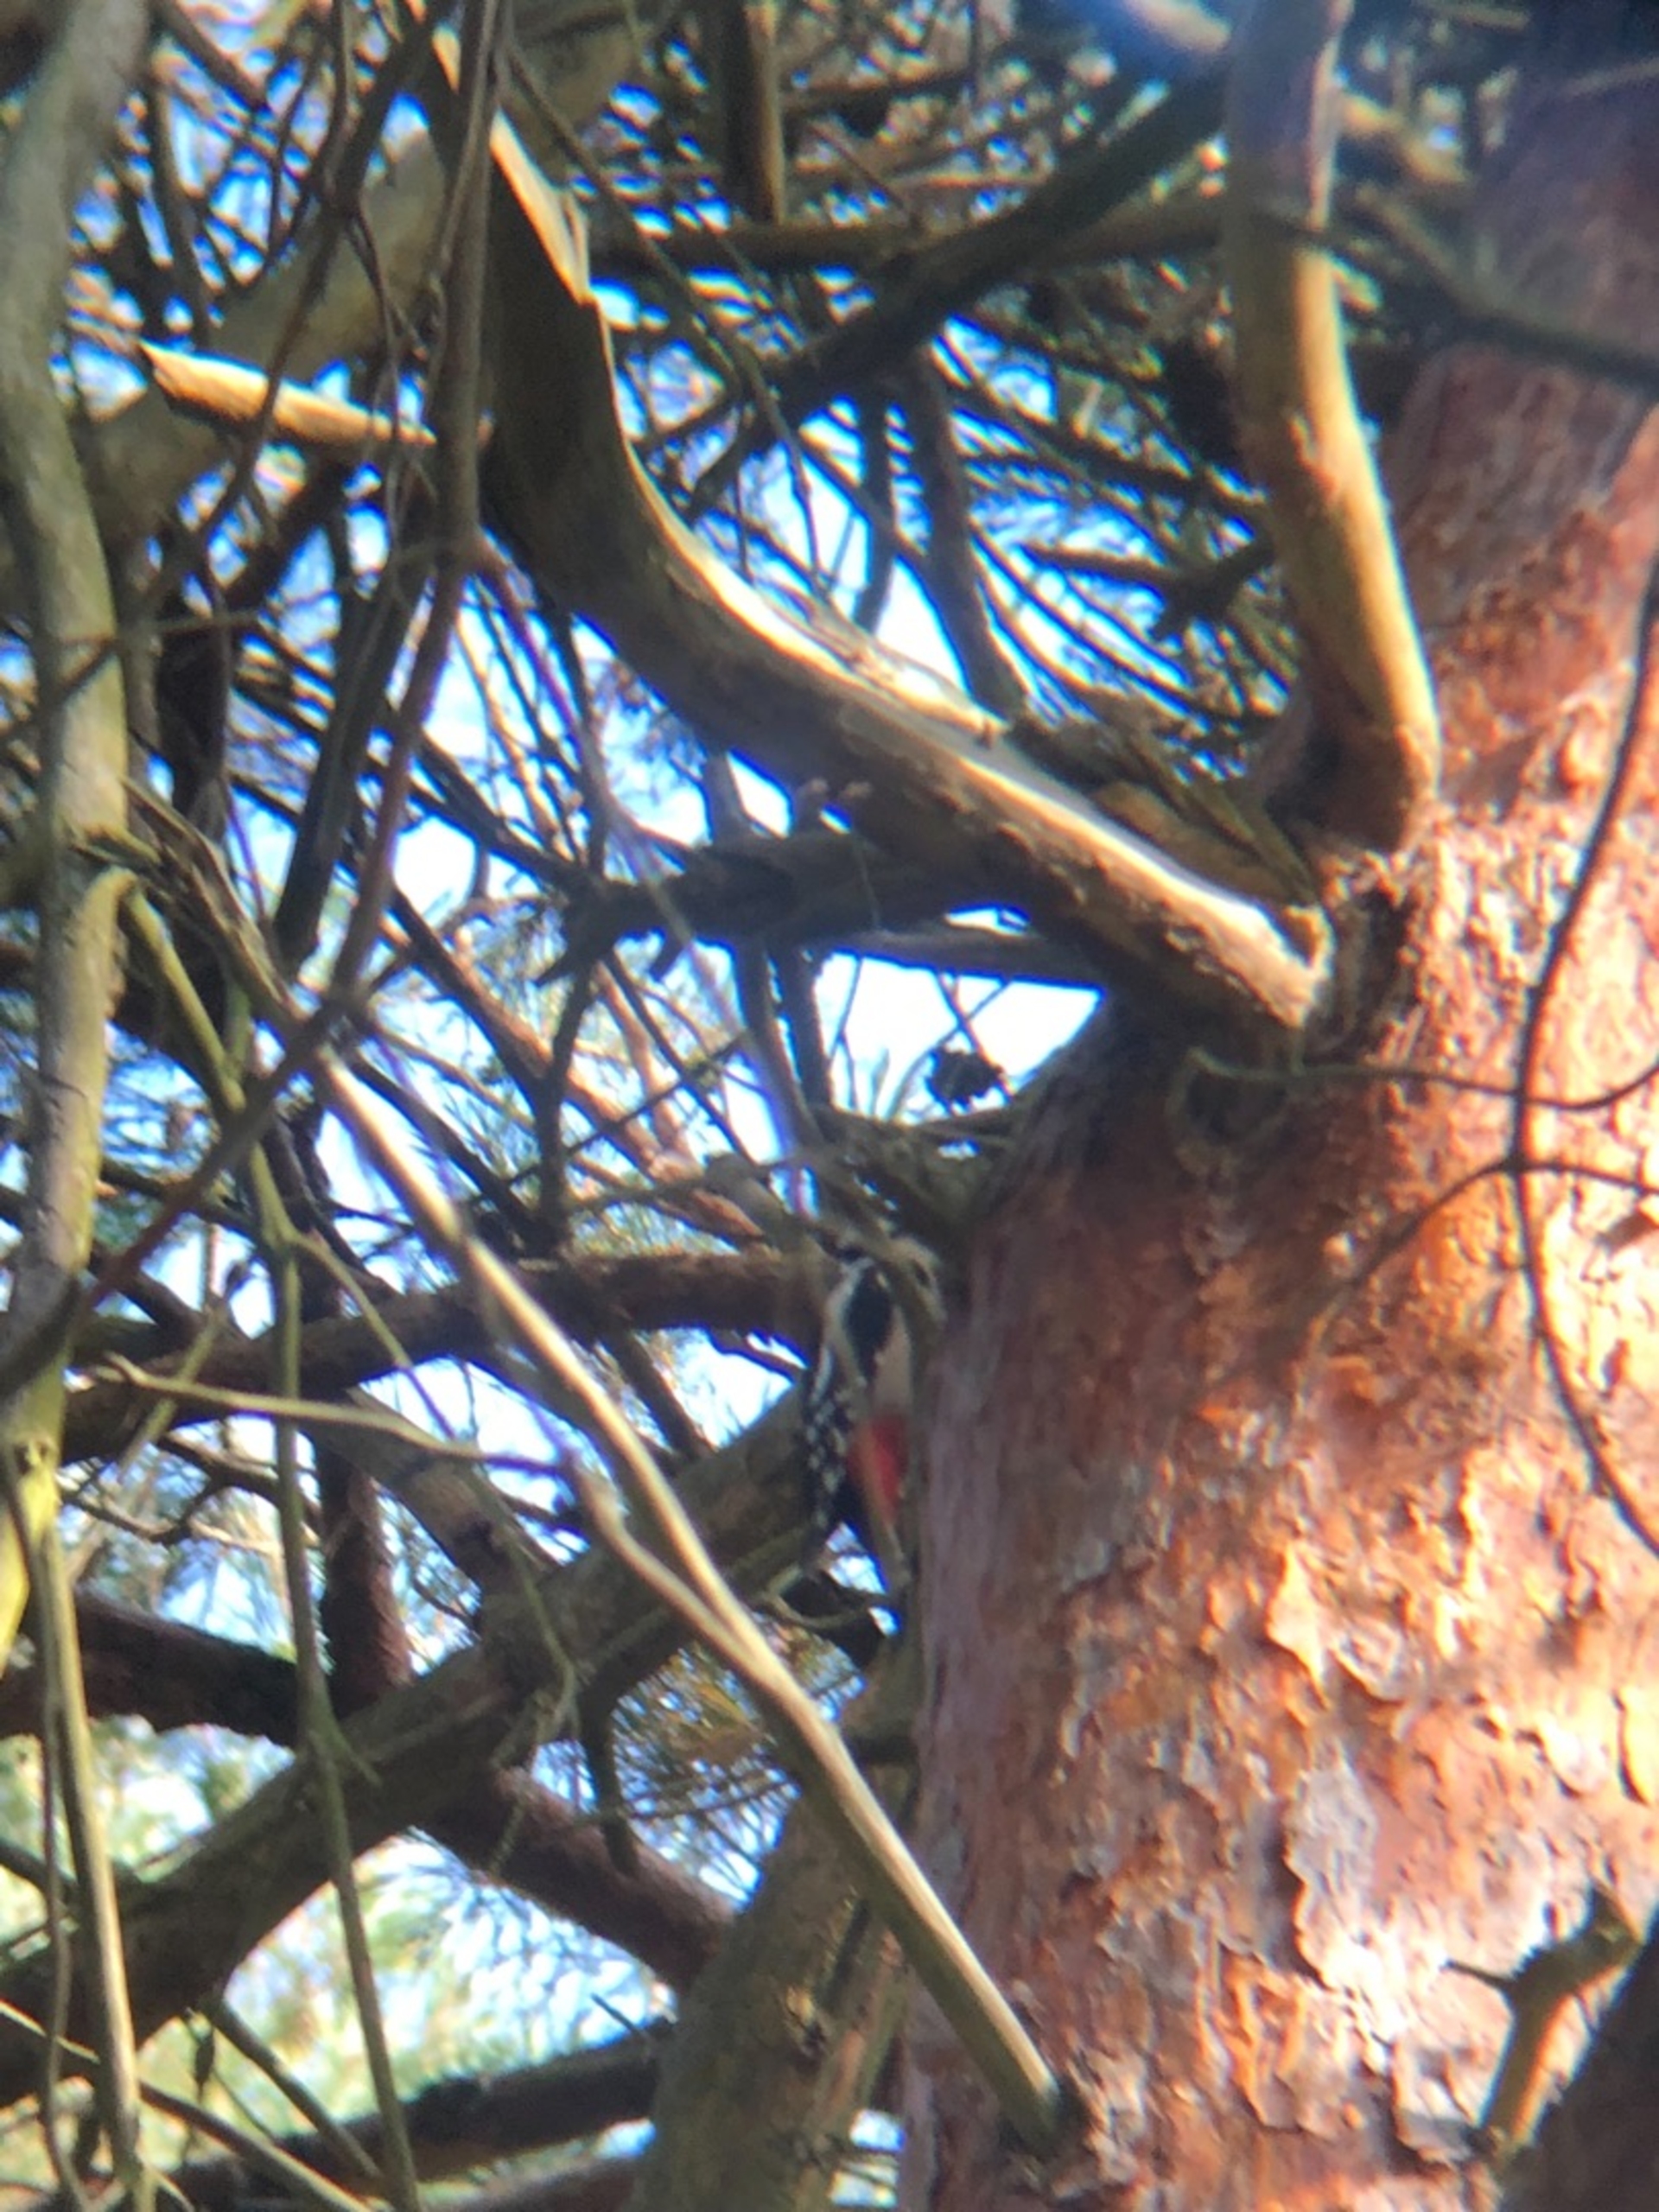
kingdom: Animalia
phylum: Chordata
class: Aves
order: Piciformes
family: Picidae
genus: Dendrocopos
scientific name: Dendrocopos major
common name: Stor flagspætte
